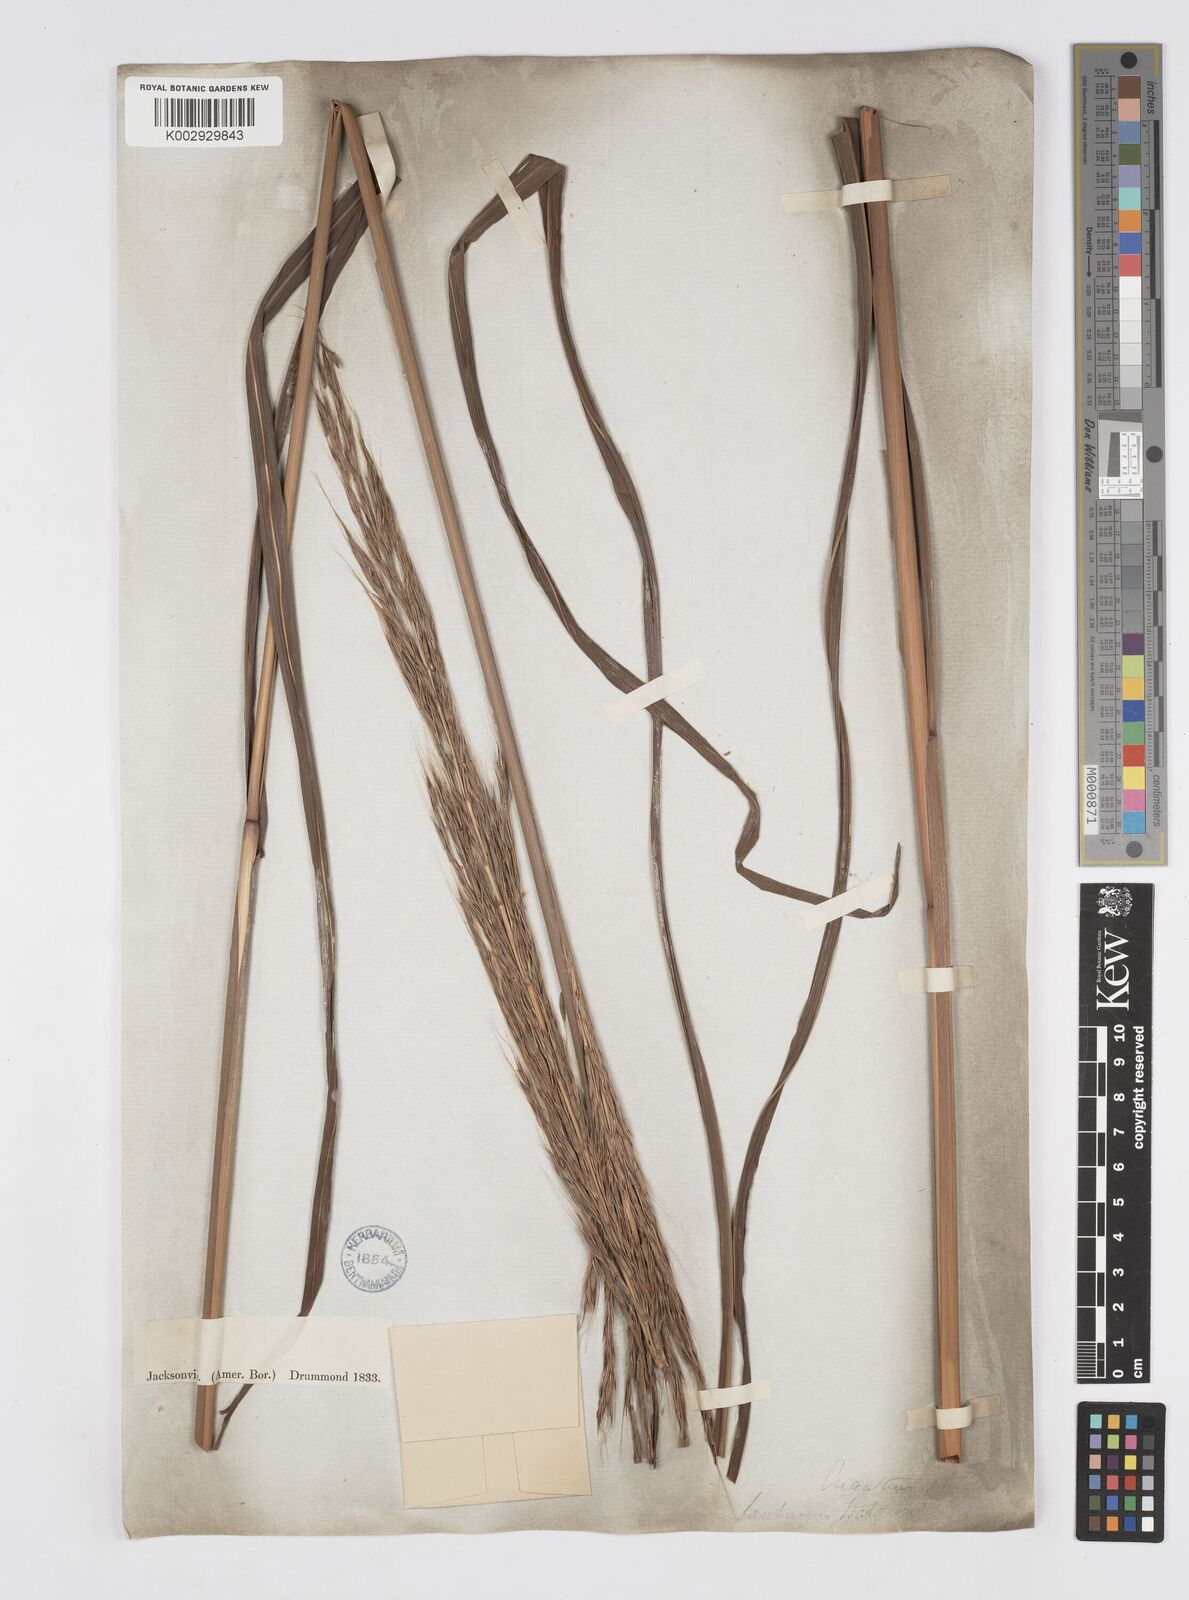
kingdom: Plantae
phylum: Tracheophyta
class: Liliopsida
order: Poales
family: Poaceae
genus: Erianthus
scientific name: Erianthus strictus
